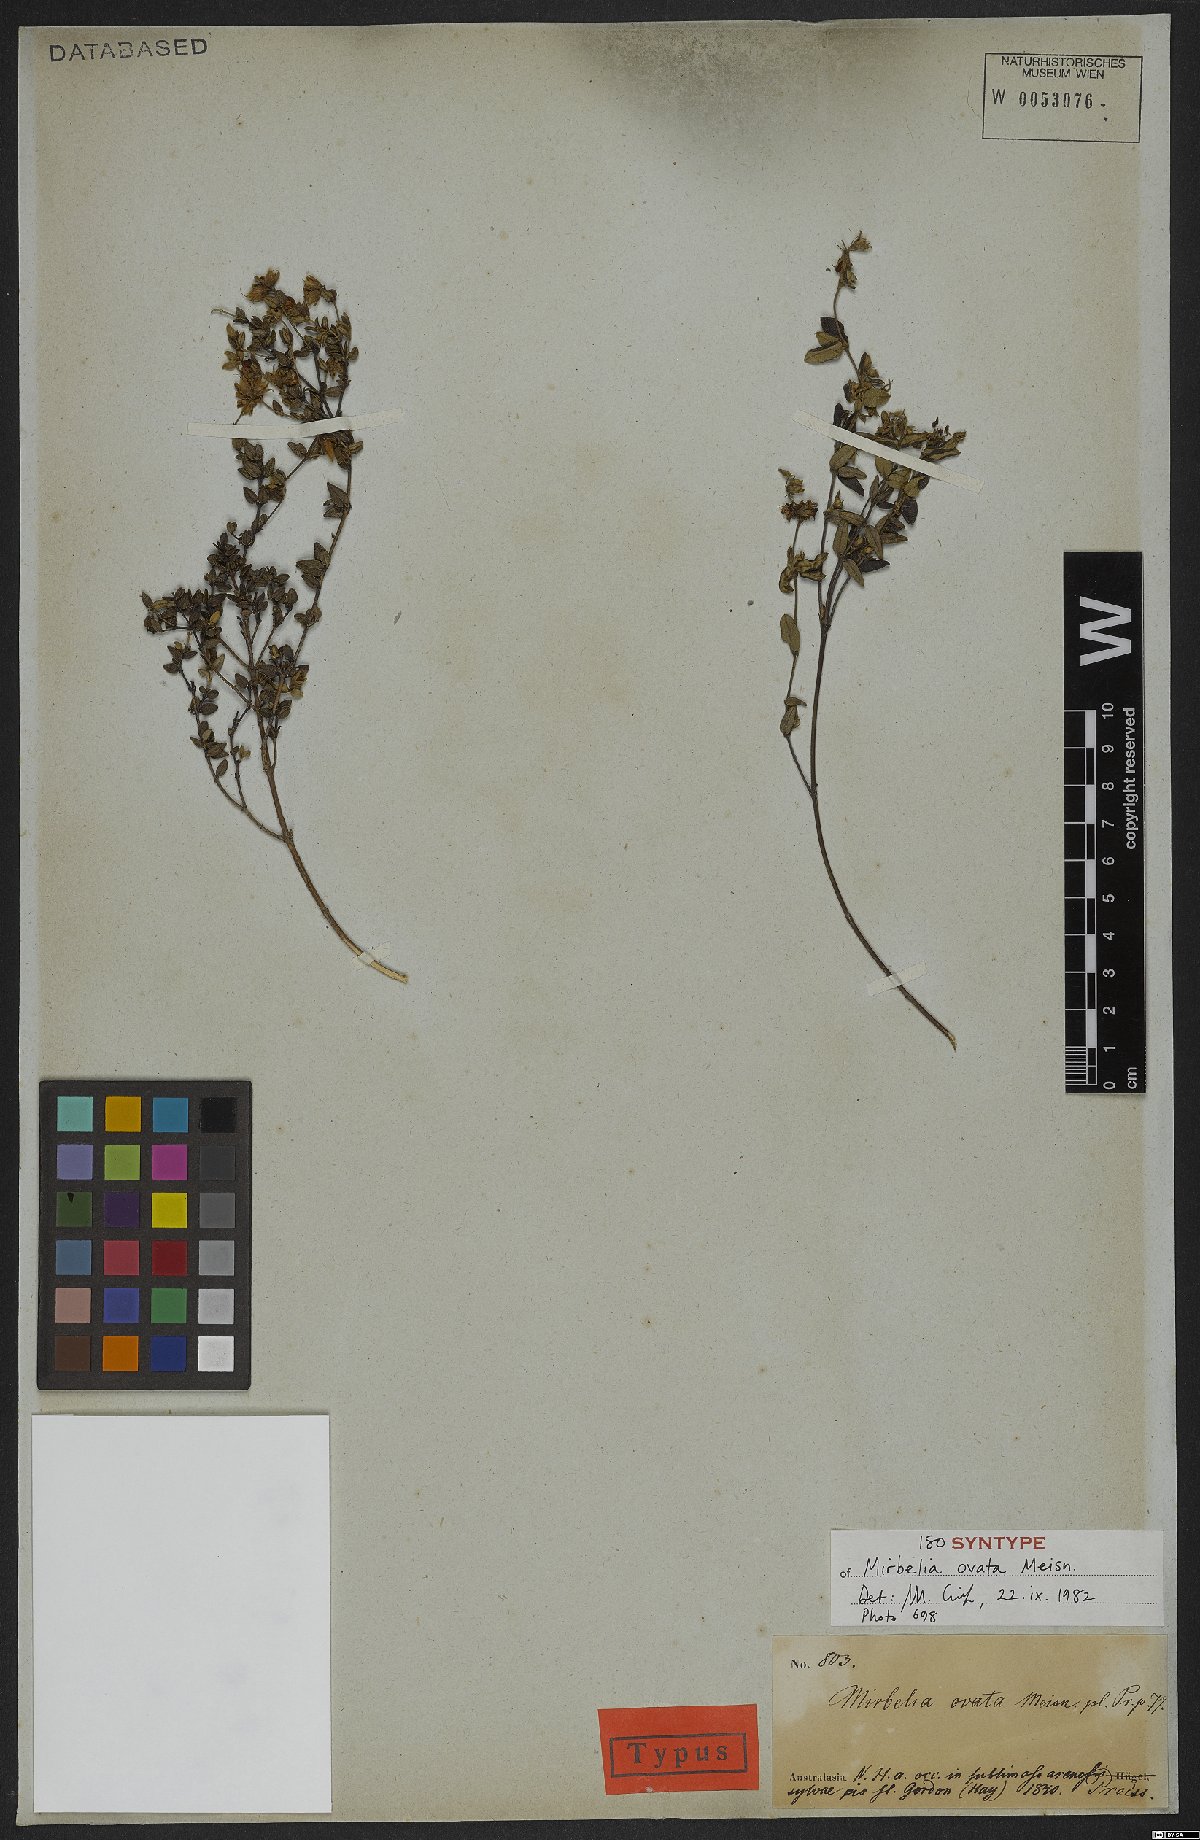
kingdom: Plantae
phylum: Tracheophyta
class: Magnoliopsida
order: Fabales
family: Fabaceae
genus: Mirbelia
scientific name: Mirbelia ovata
